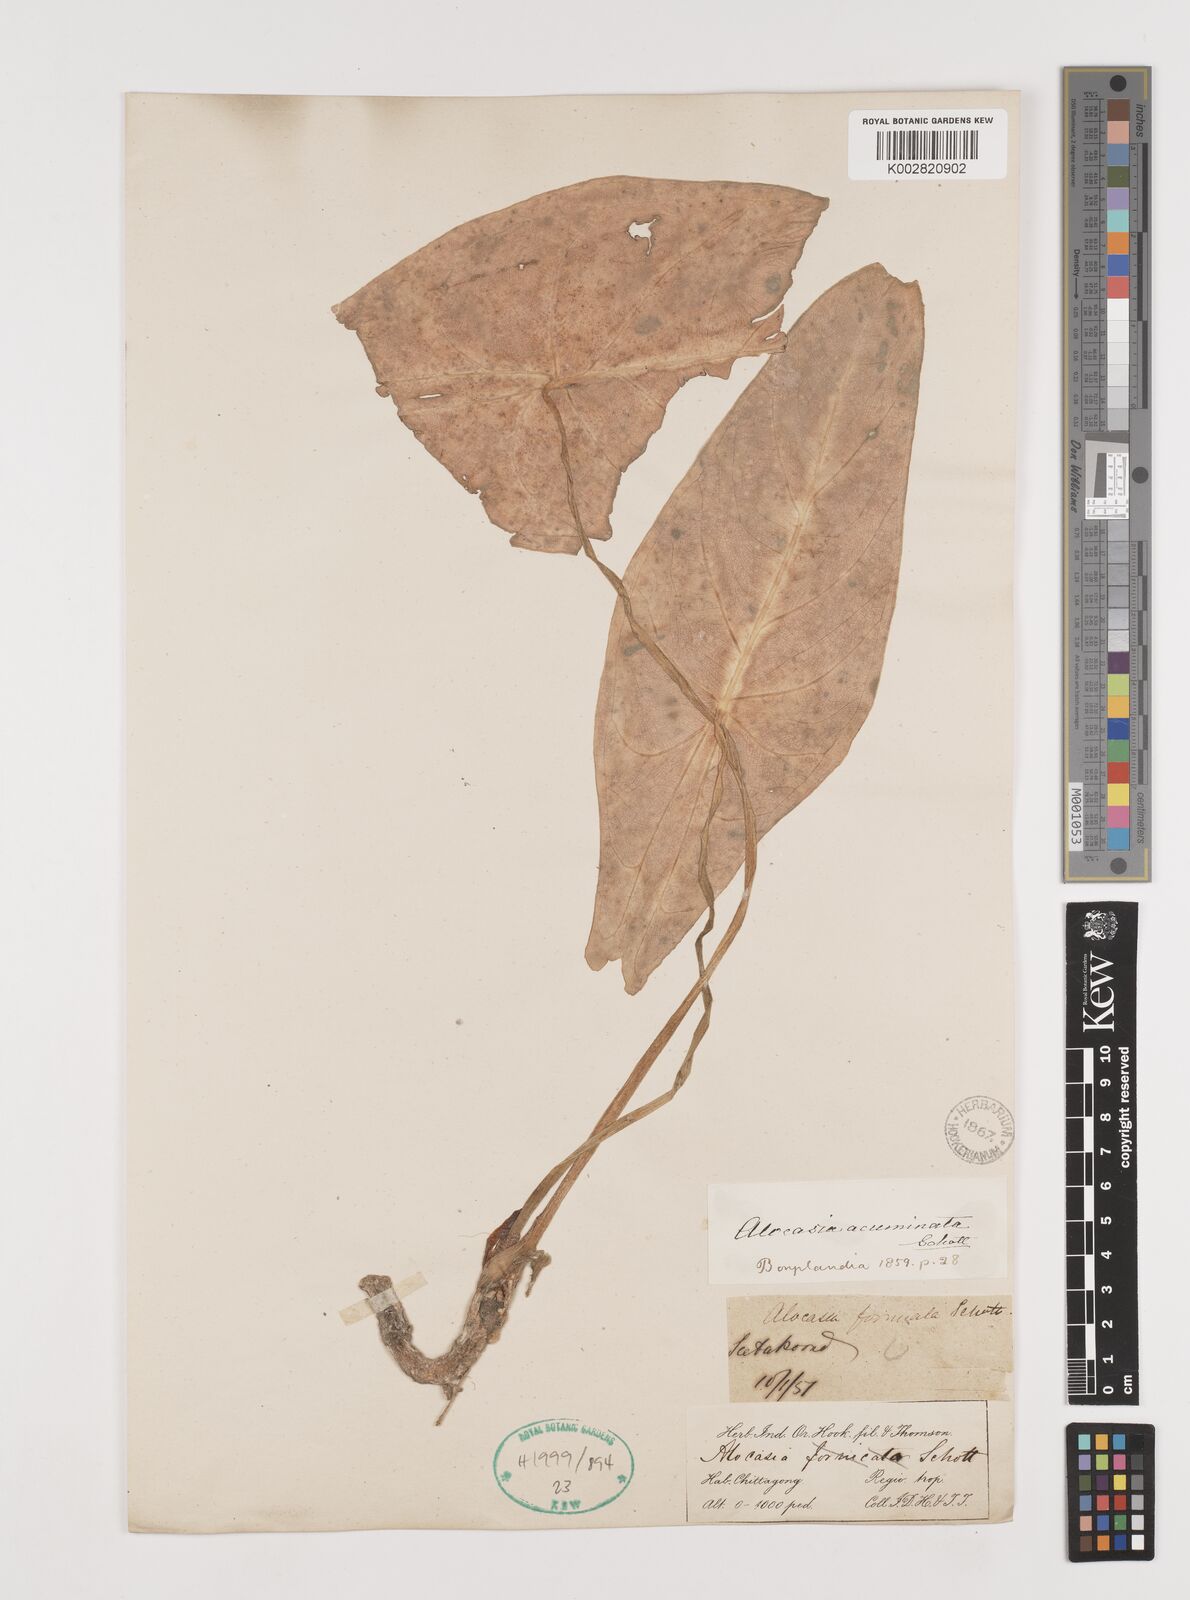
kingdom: Plantae
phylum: Tracheophyta
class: Liliopsida
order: Alismatales
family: Araceae
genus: Alocasia
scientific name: Alocasia acuminata
